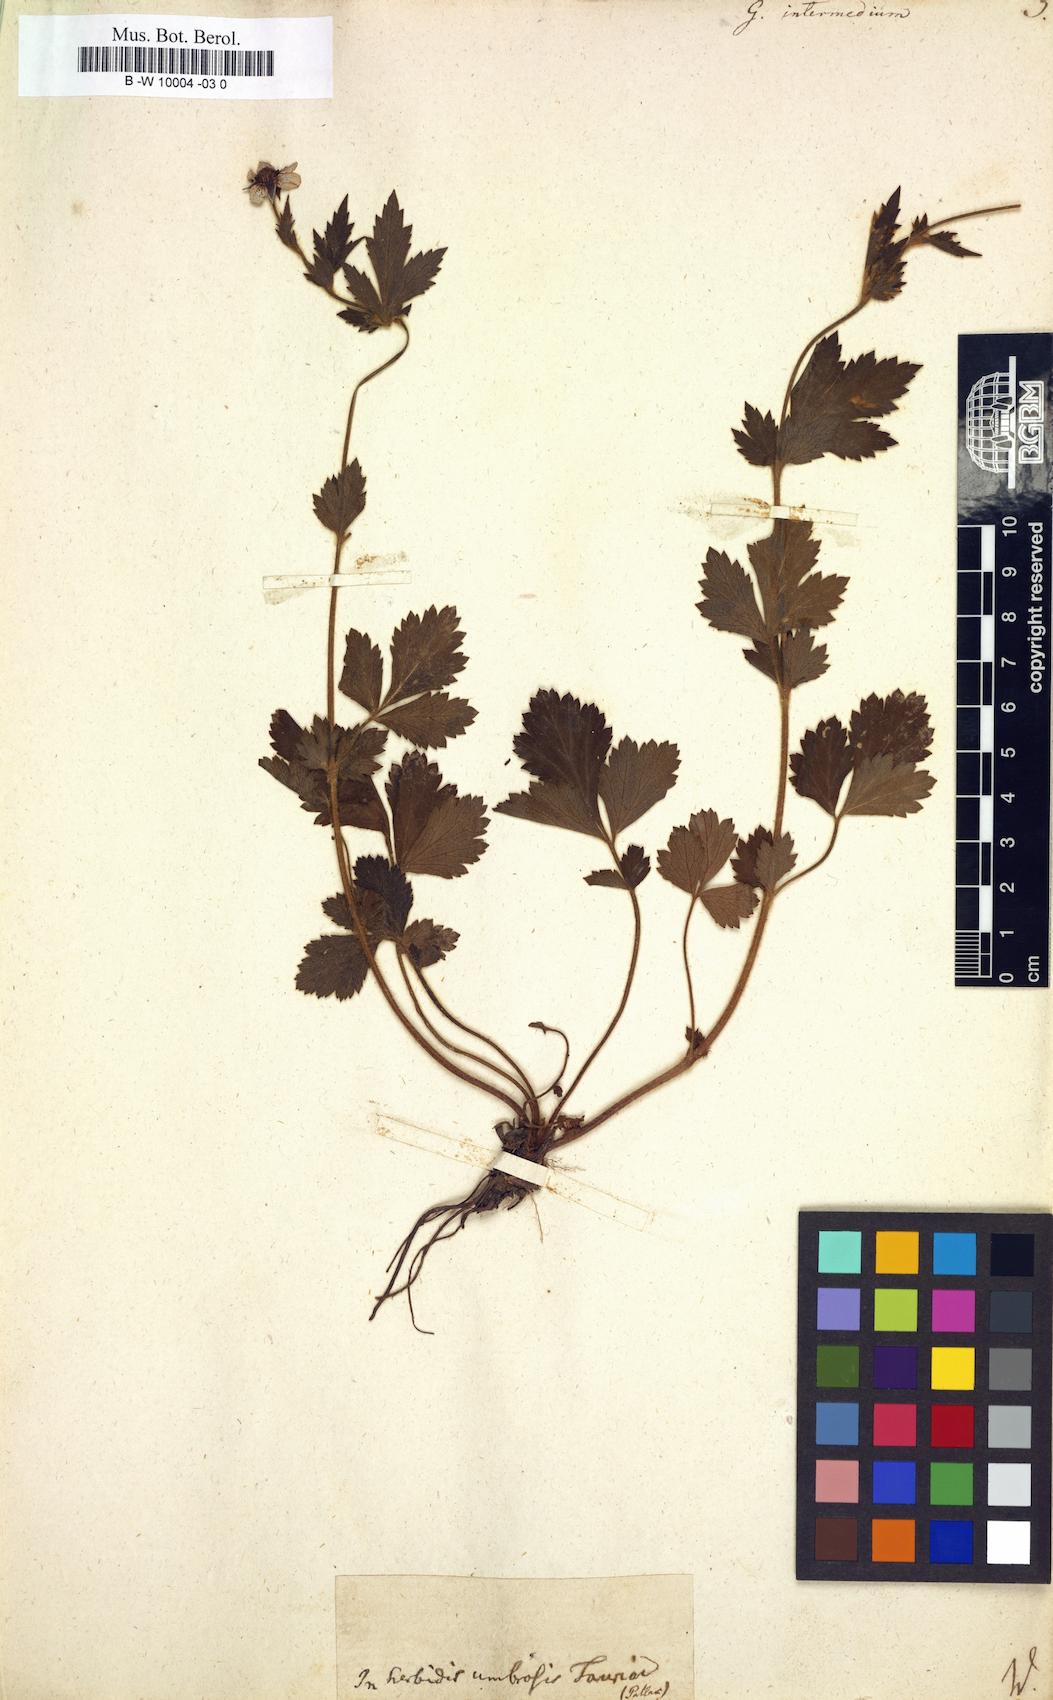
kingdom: Plantae
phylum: Tracheophyta
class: Magnoliopsida
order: Rosales
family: Rosaceae
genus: Geum
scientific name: Geum urbanum
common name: Wood avens
